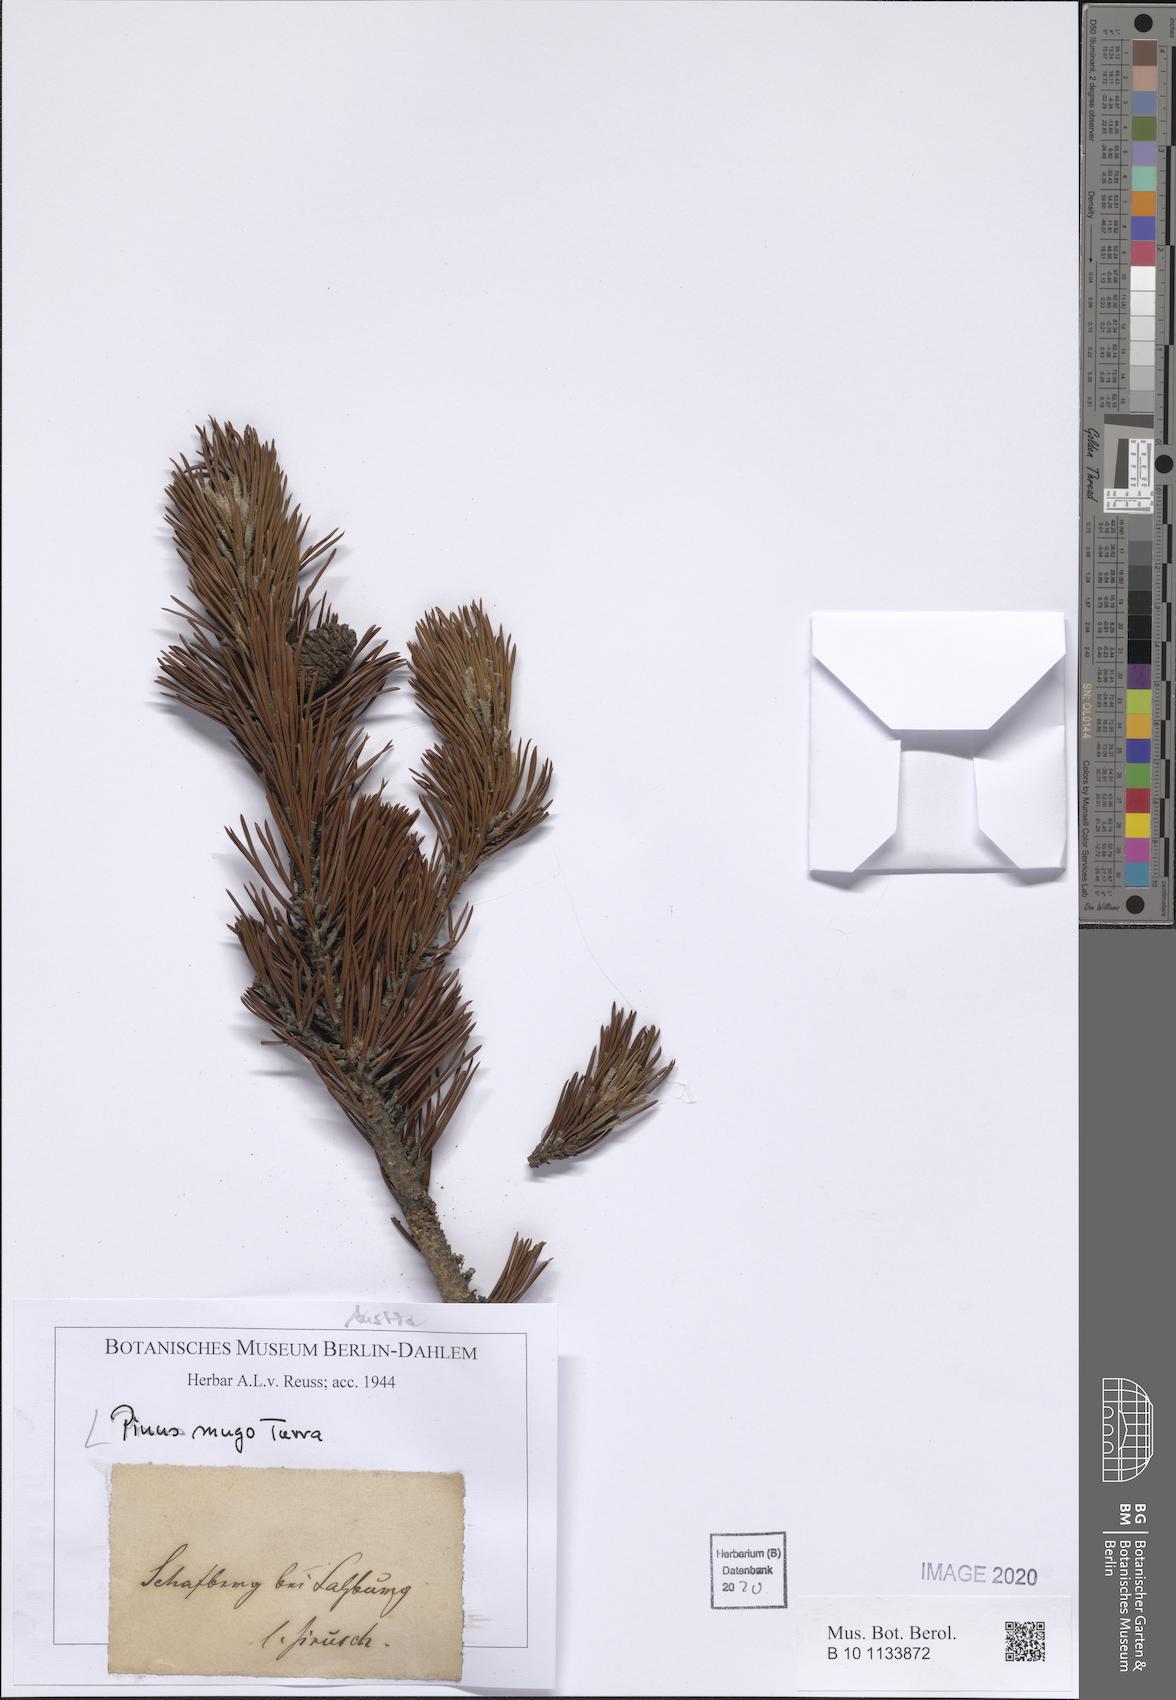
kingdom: Plantae
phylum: Tracheophyta
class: Pinopsida
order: Pinales
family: Pinaceae
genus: Pinus
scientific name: Pinus mugo
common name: Mugo pine
